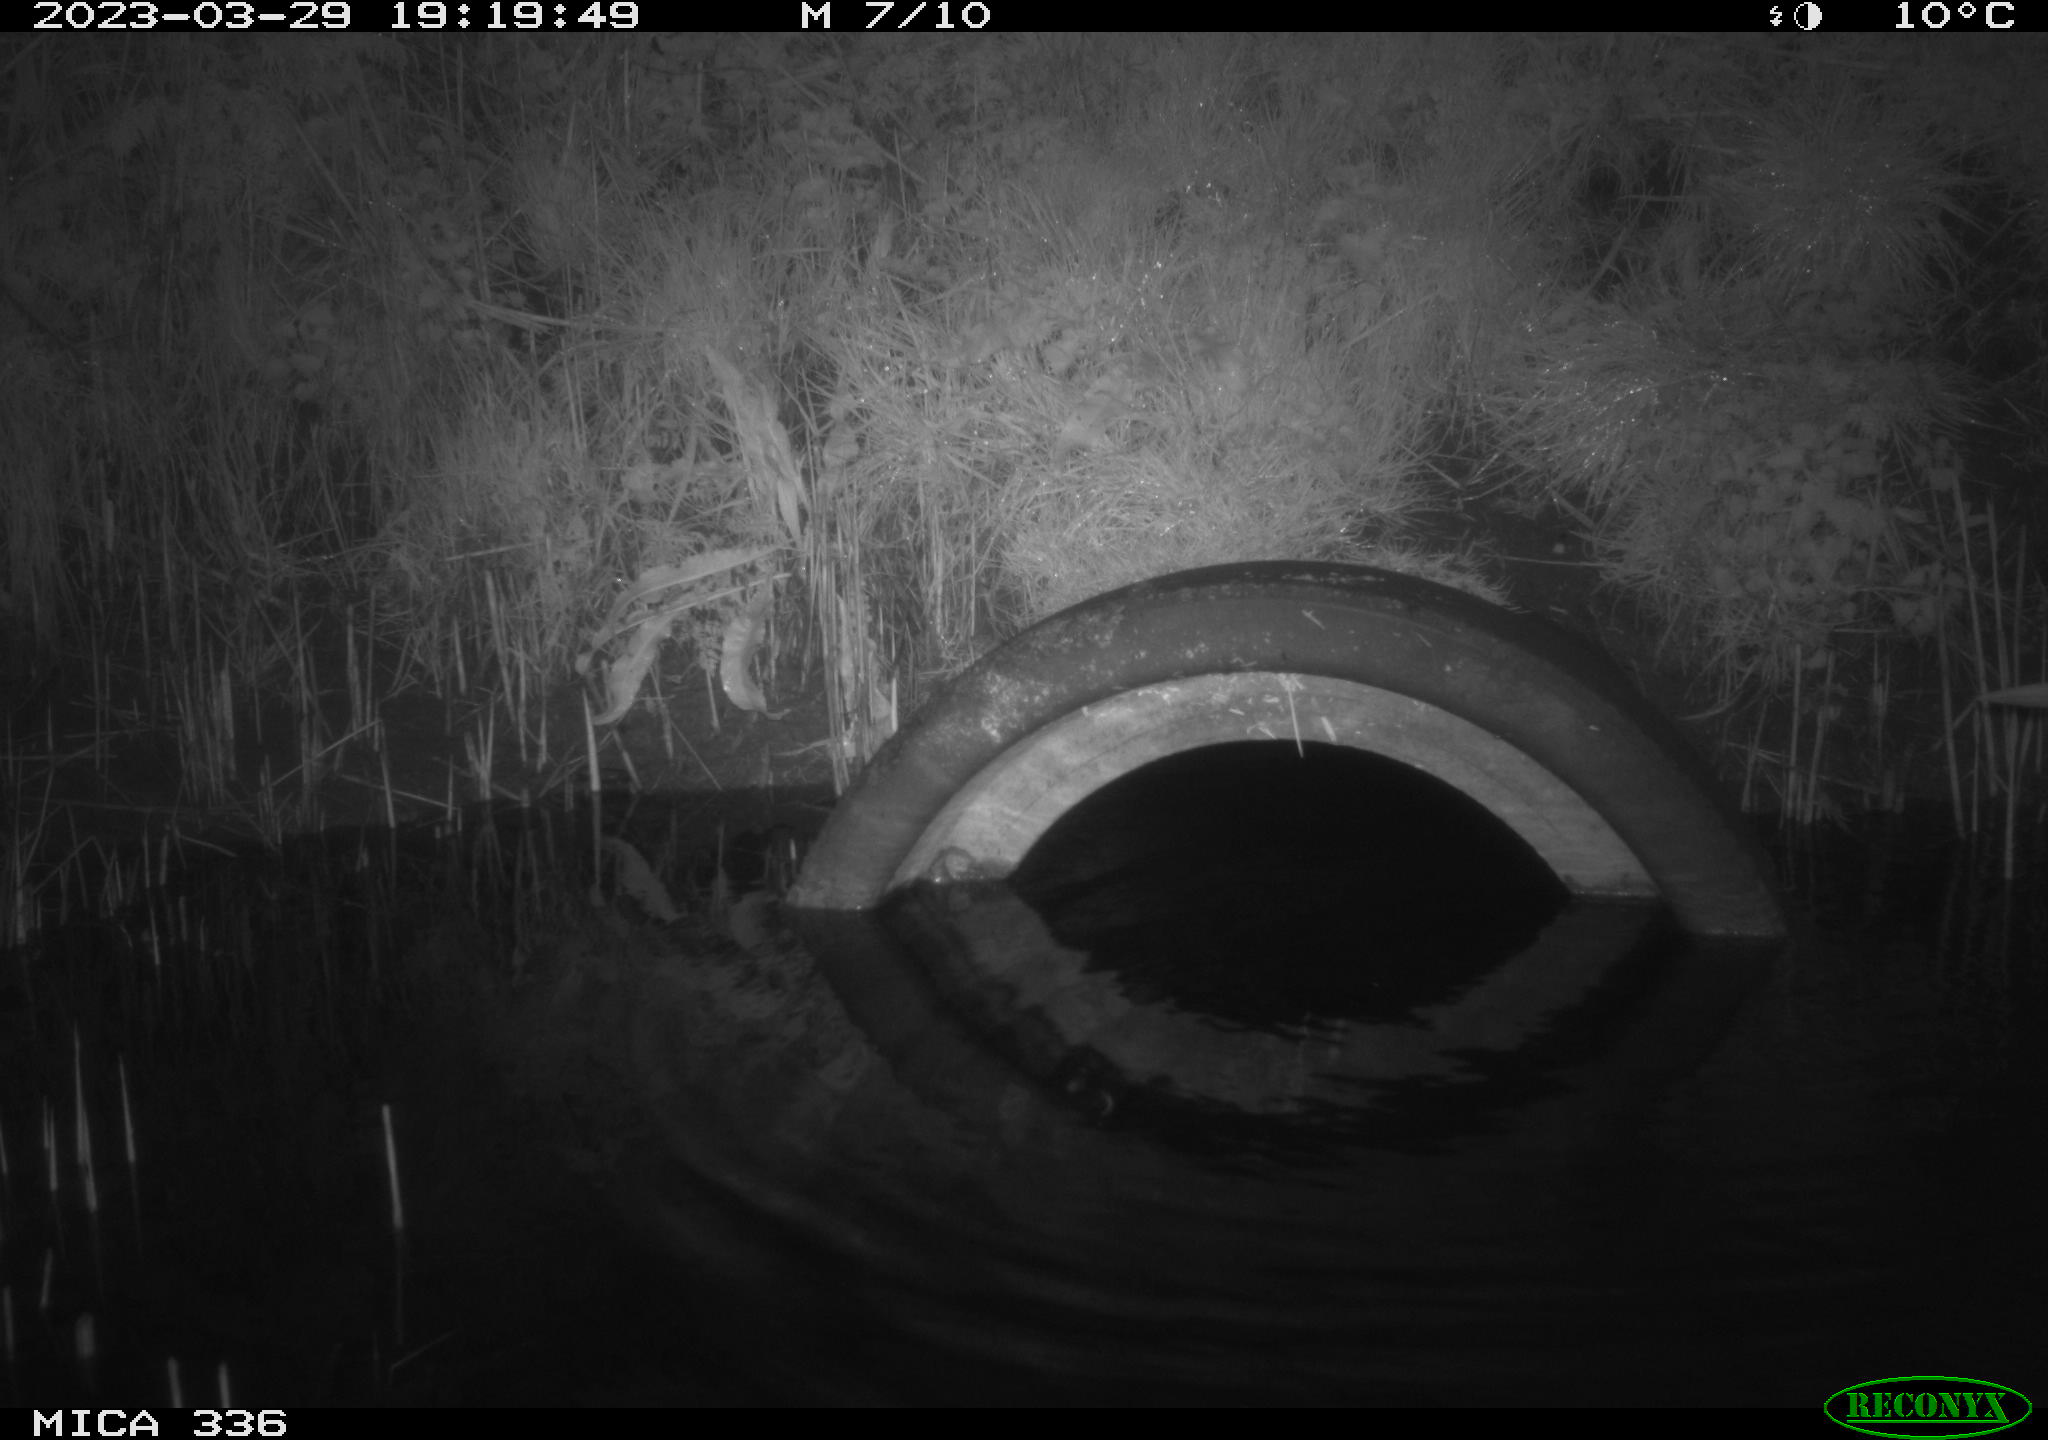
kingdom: Animalia
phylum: Chordata
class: Aves
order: Pelecaniformes
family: Ardeidae
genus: Ardea
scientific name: Ardea
